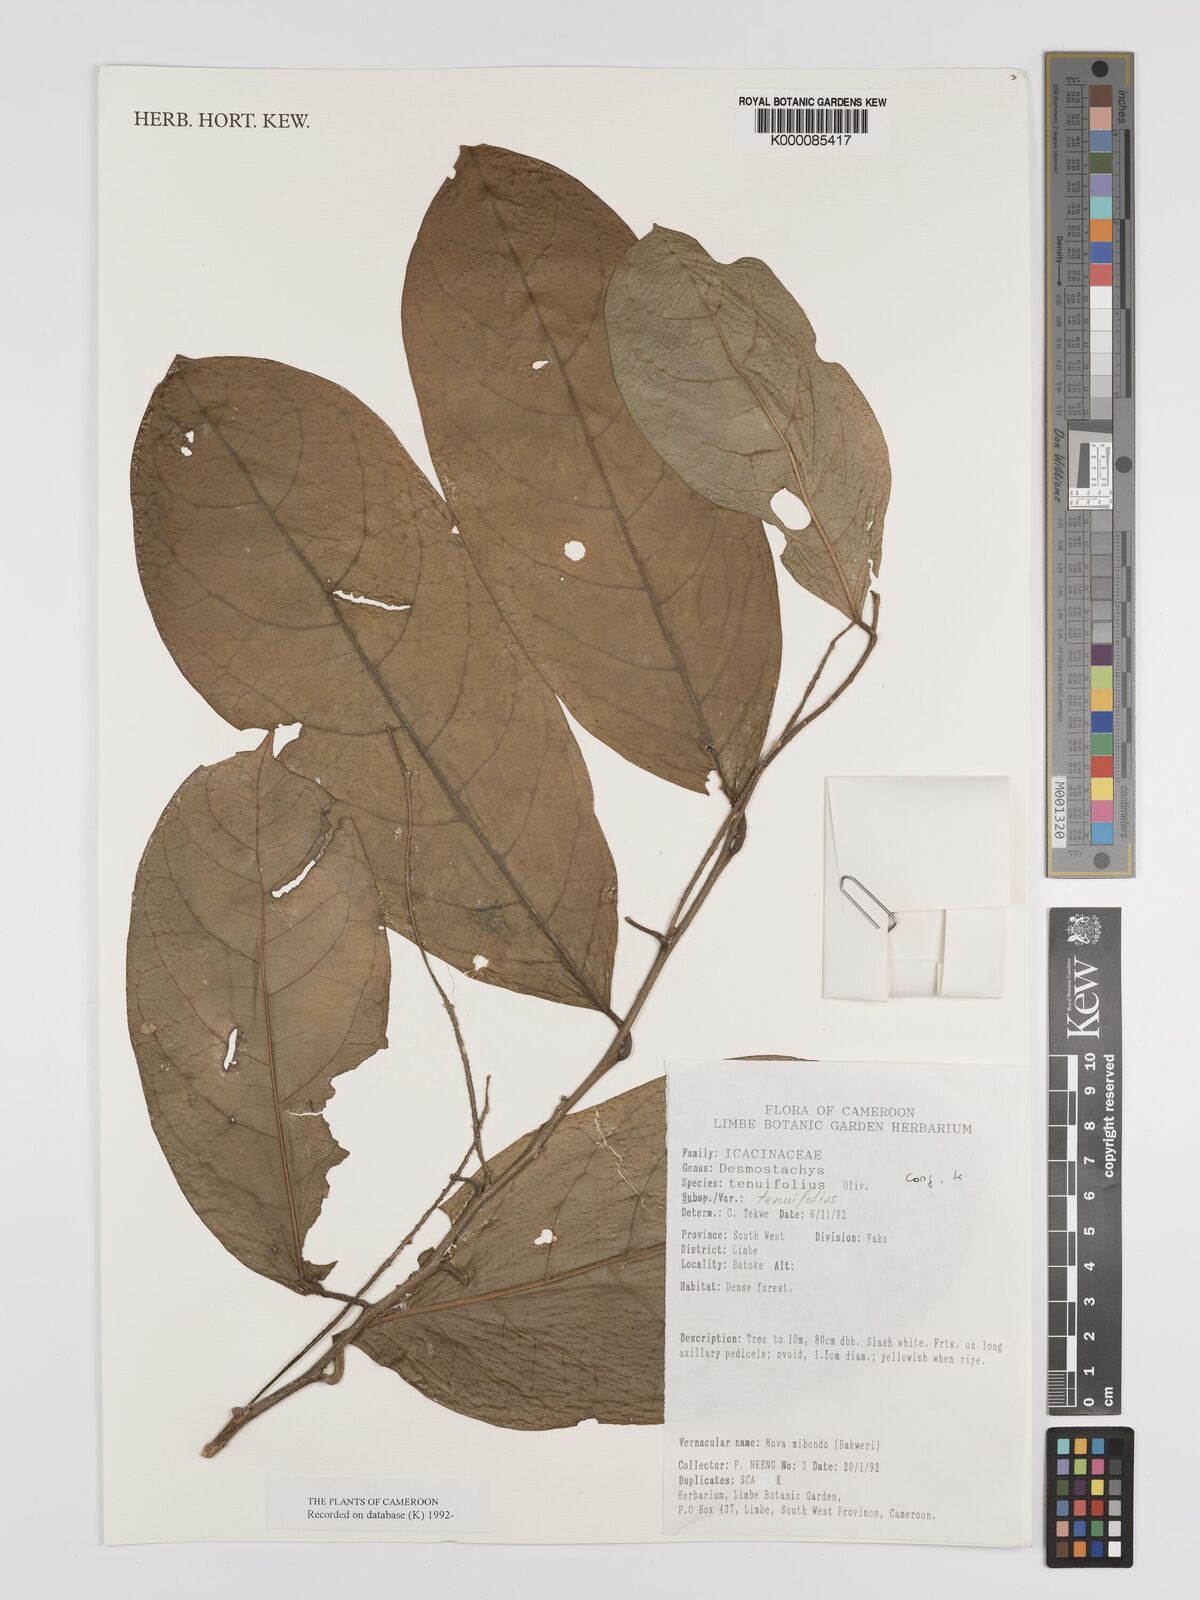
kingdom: Plantae
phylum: Tracheophyta
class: Magnoliopsida
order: Icacinales
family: Icacinaceae
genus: Vadensea
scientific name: Vadensea tenuifolia
